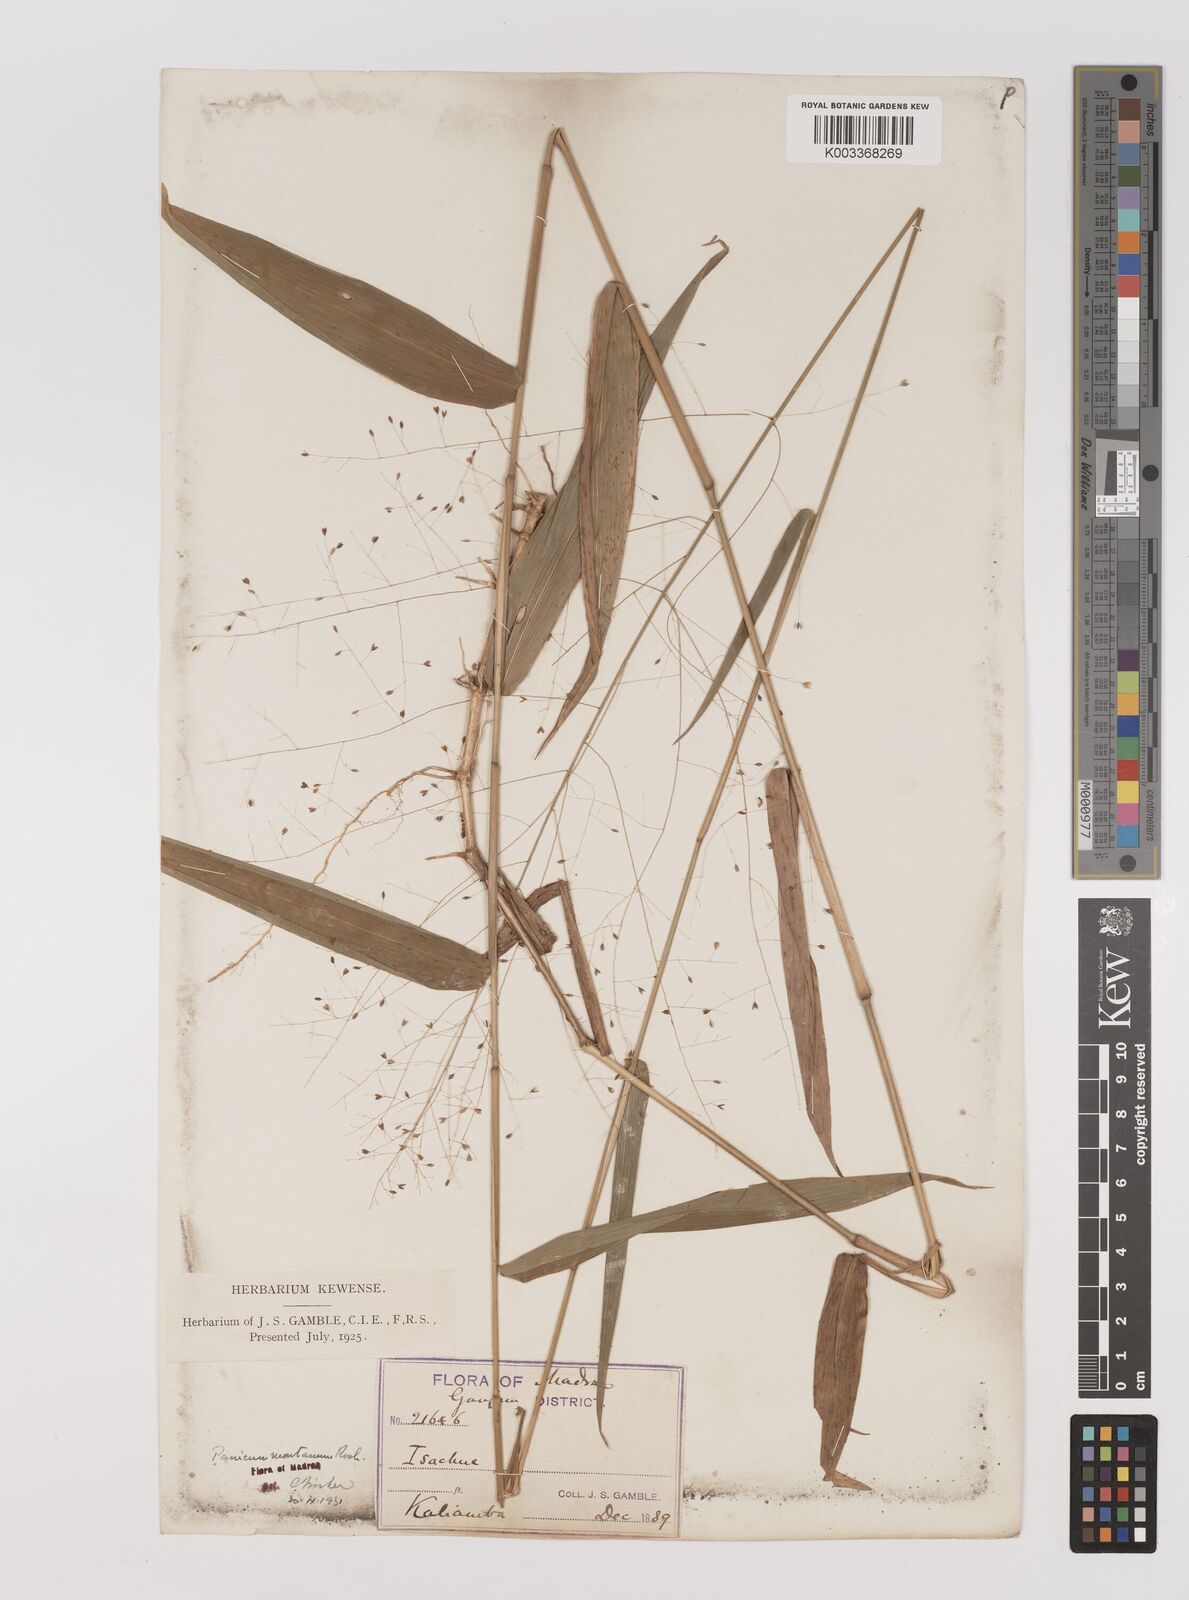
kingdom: Plantae
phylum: Tracheophyta
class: Liliopsida
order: Poales
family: Poaceae
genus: Panicum
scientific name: Panicum notatum
